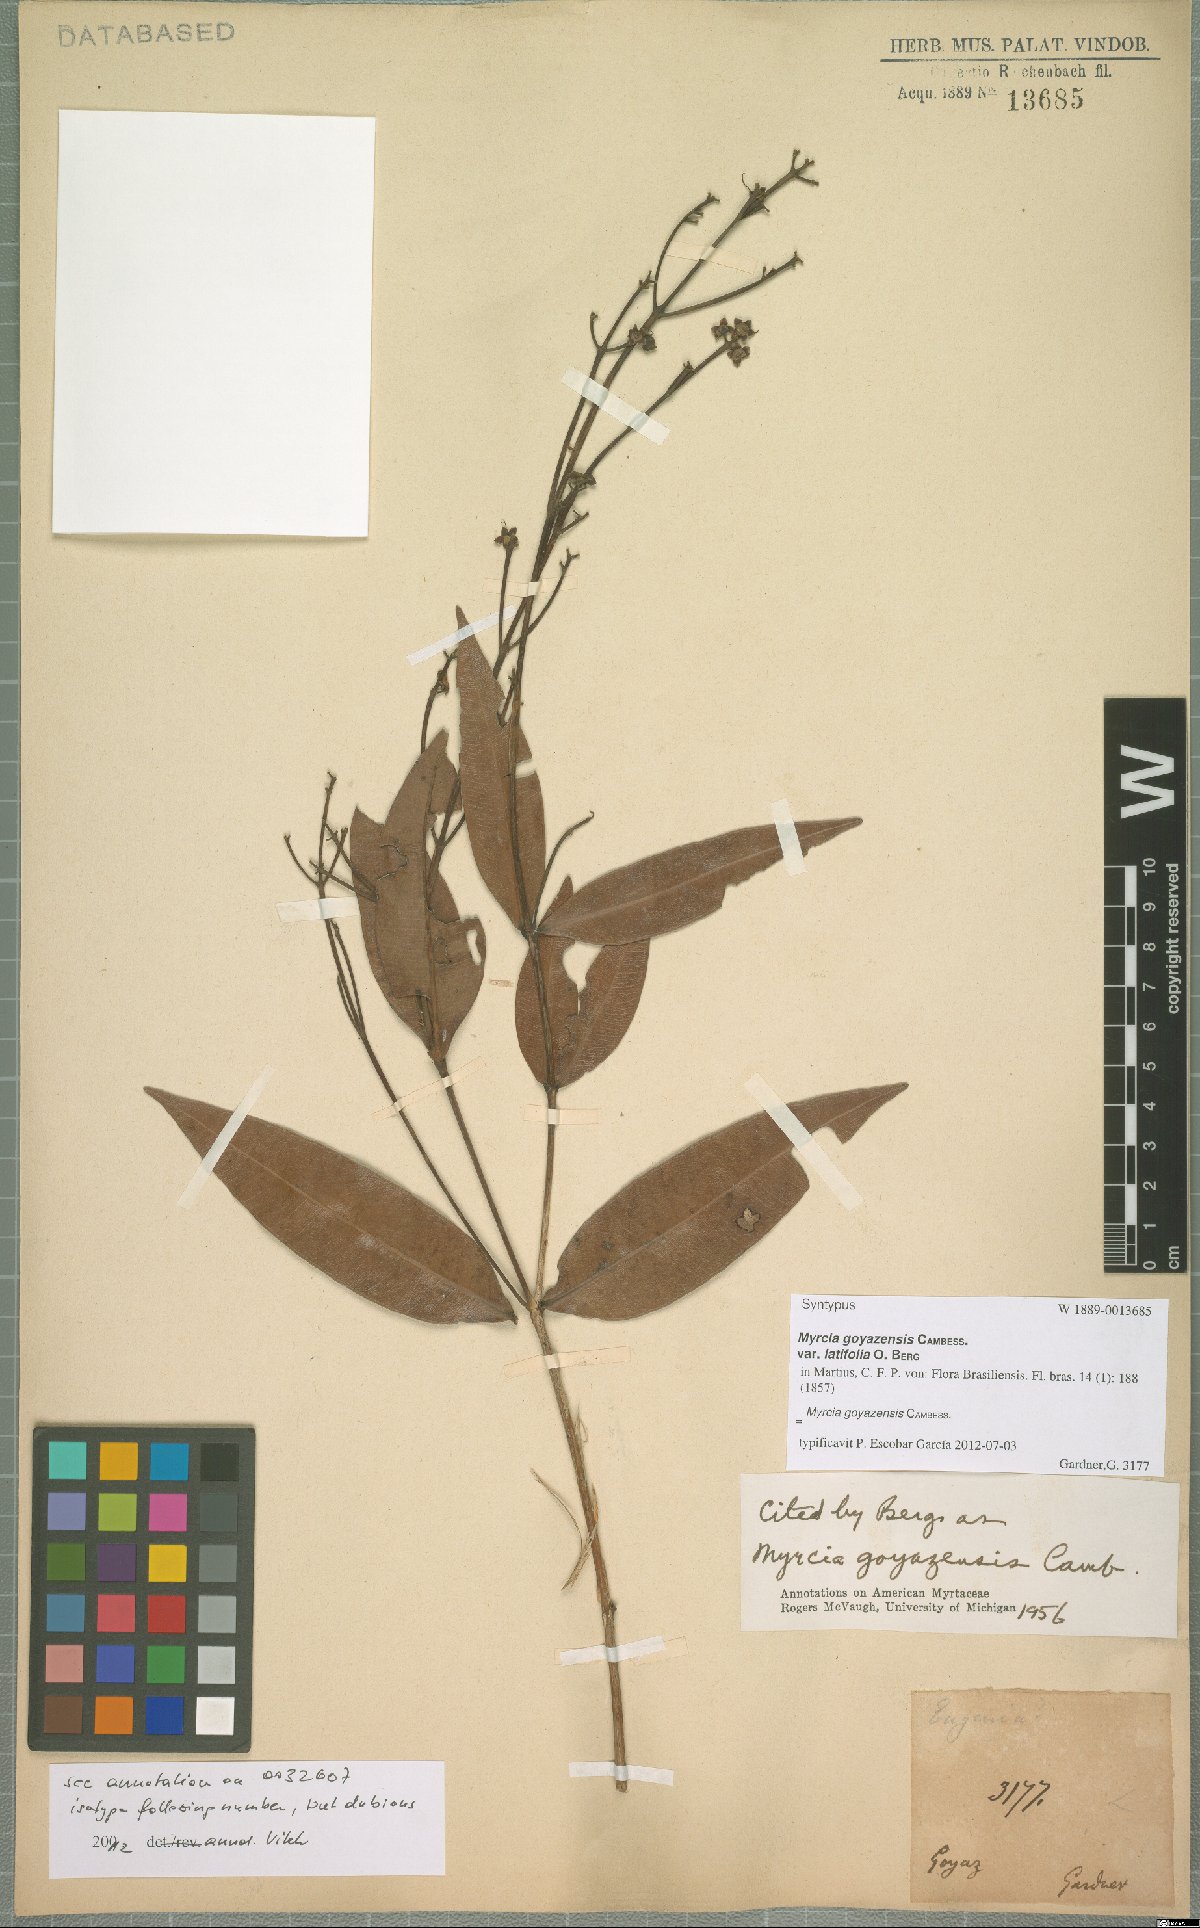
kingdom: Plantae
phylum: Tracheophyta
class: Magnoliopsida
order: Myrtales
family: Myrtaceae
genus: Myrcia
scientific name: Myrcia goyazensis
